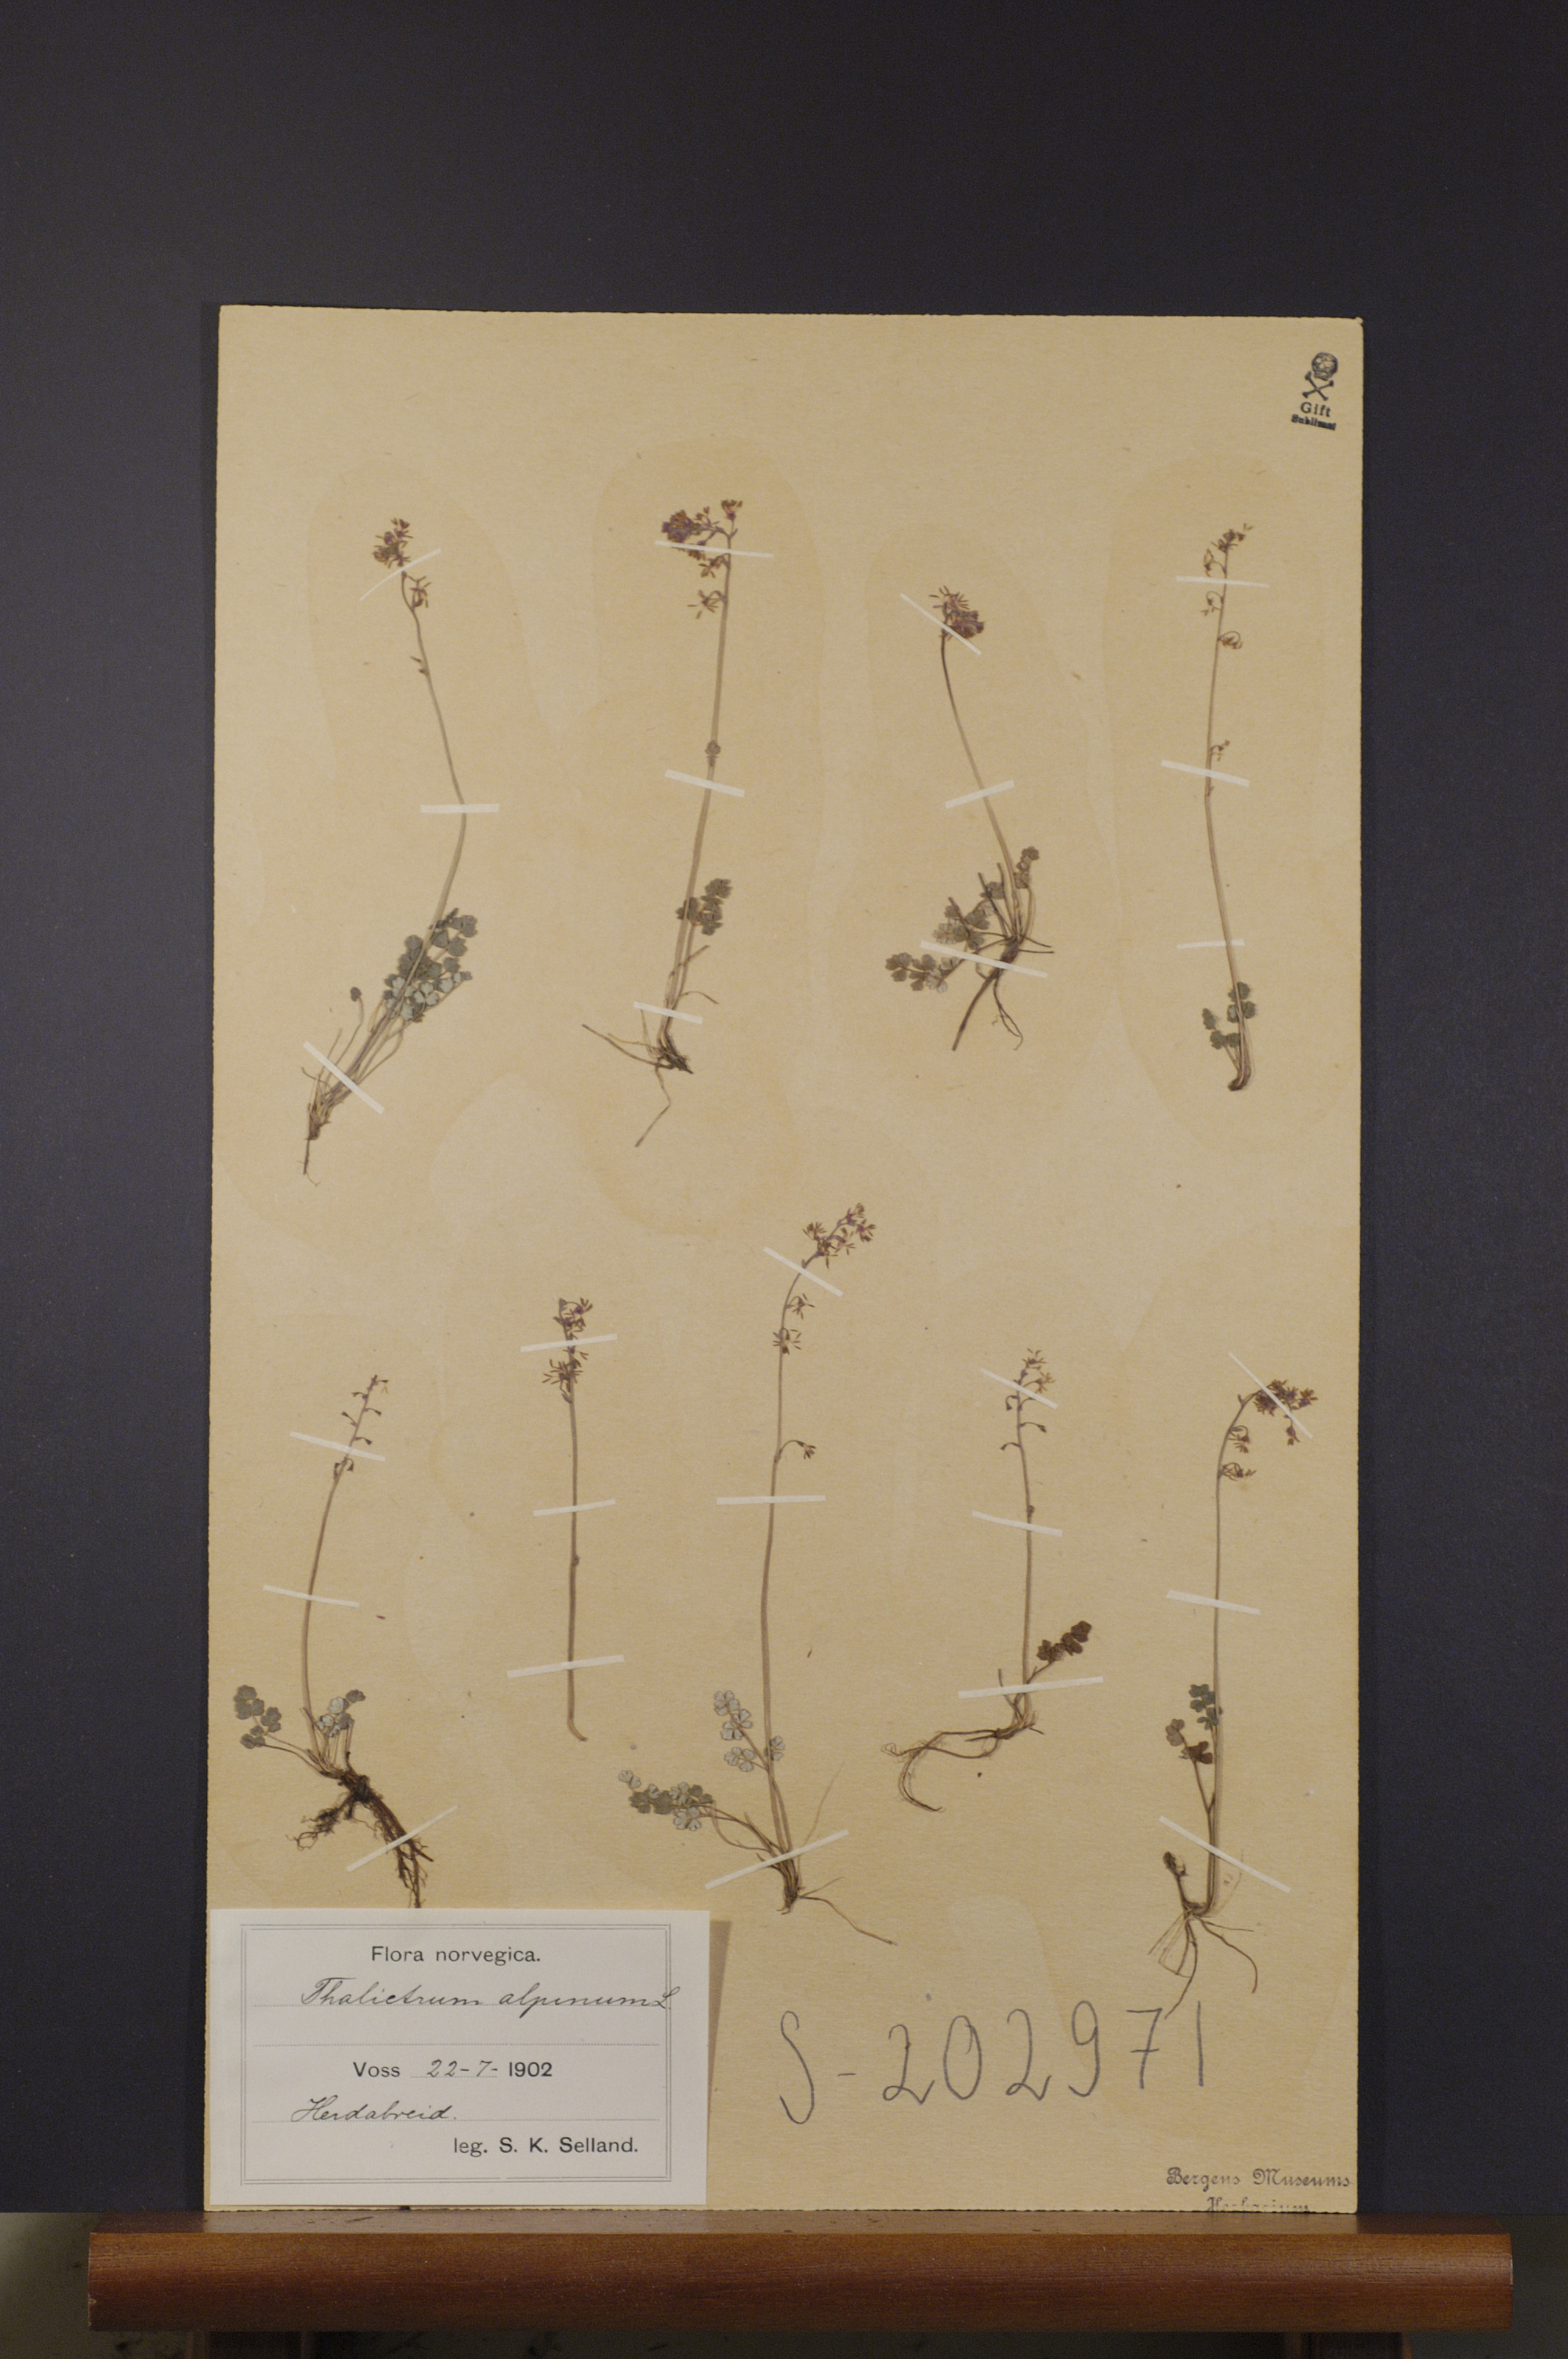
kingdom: Plantae
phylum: Tracheophyta
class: Magnoliopsida
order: Ranunculales
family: Ranunculaceae
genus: Thalictrum
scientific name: Thalictrum alpinum
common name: Alpine meadow-rue
